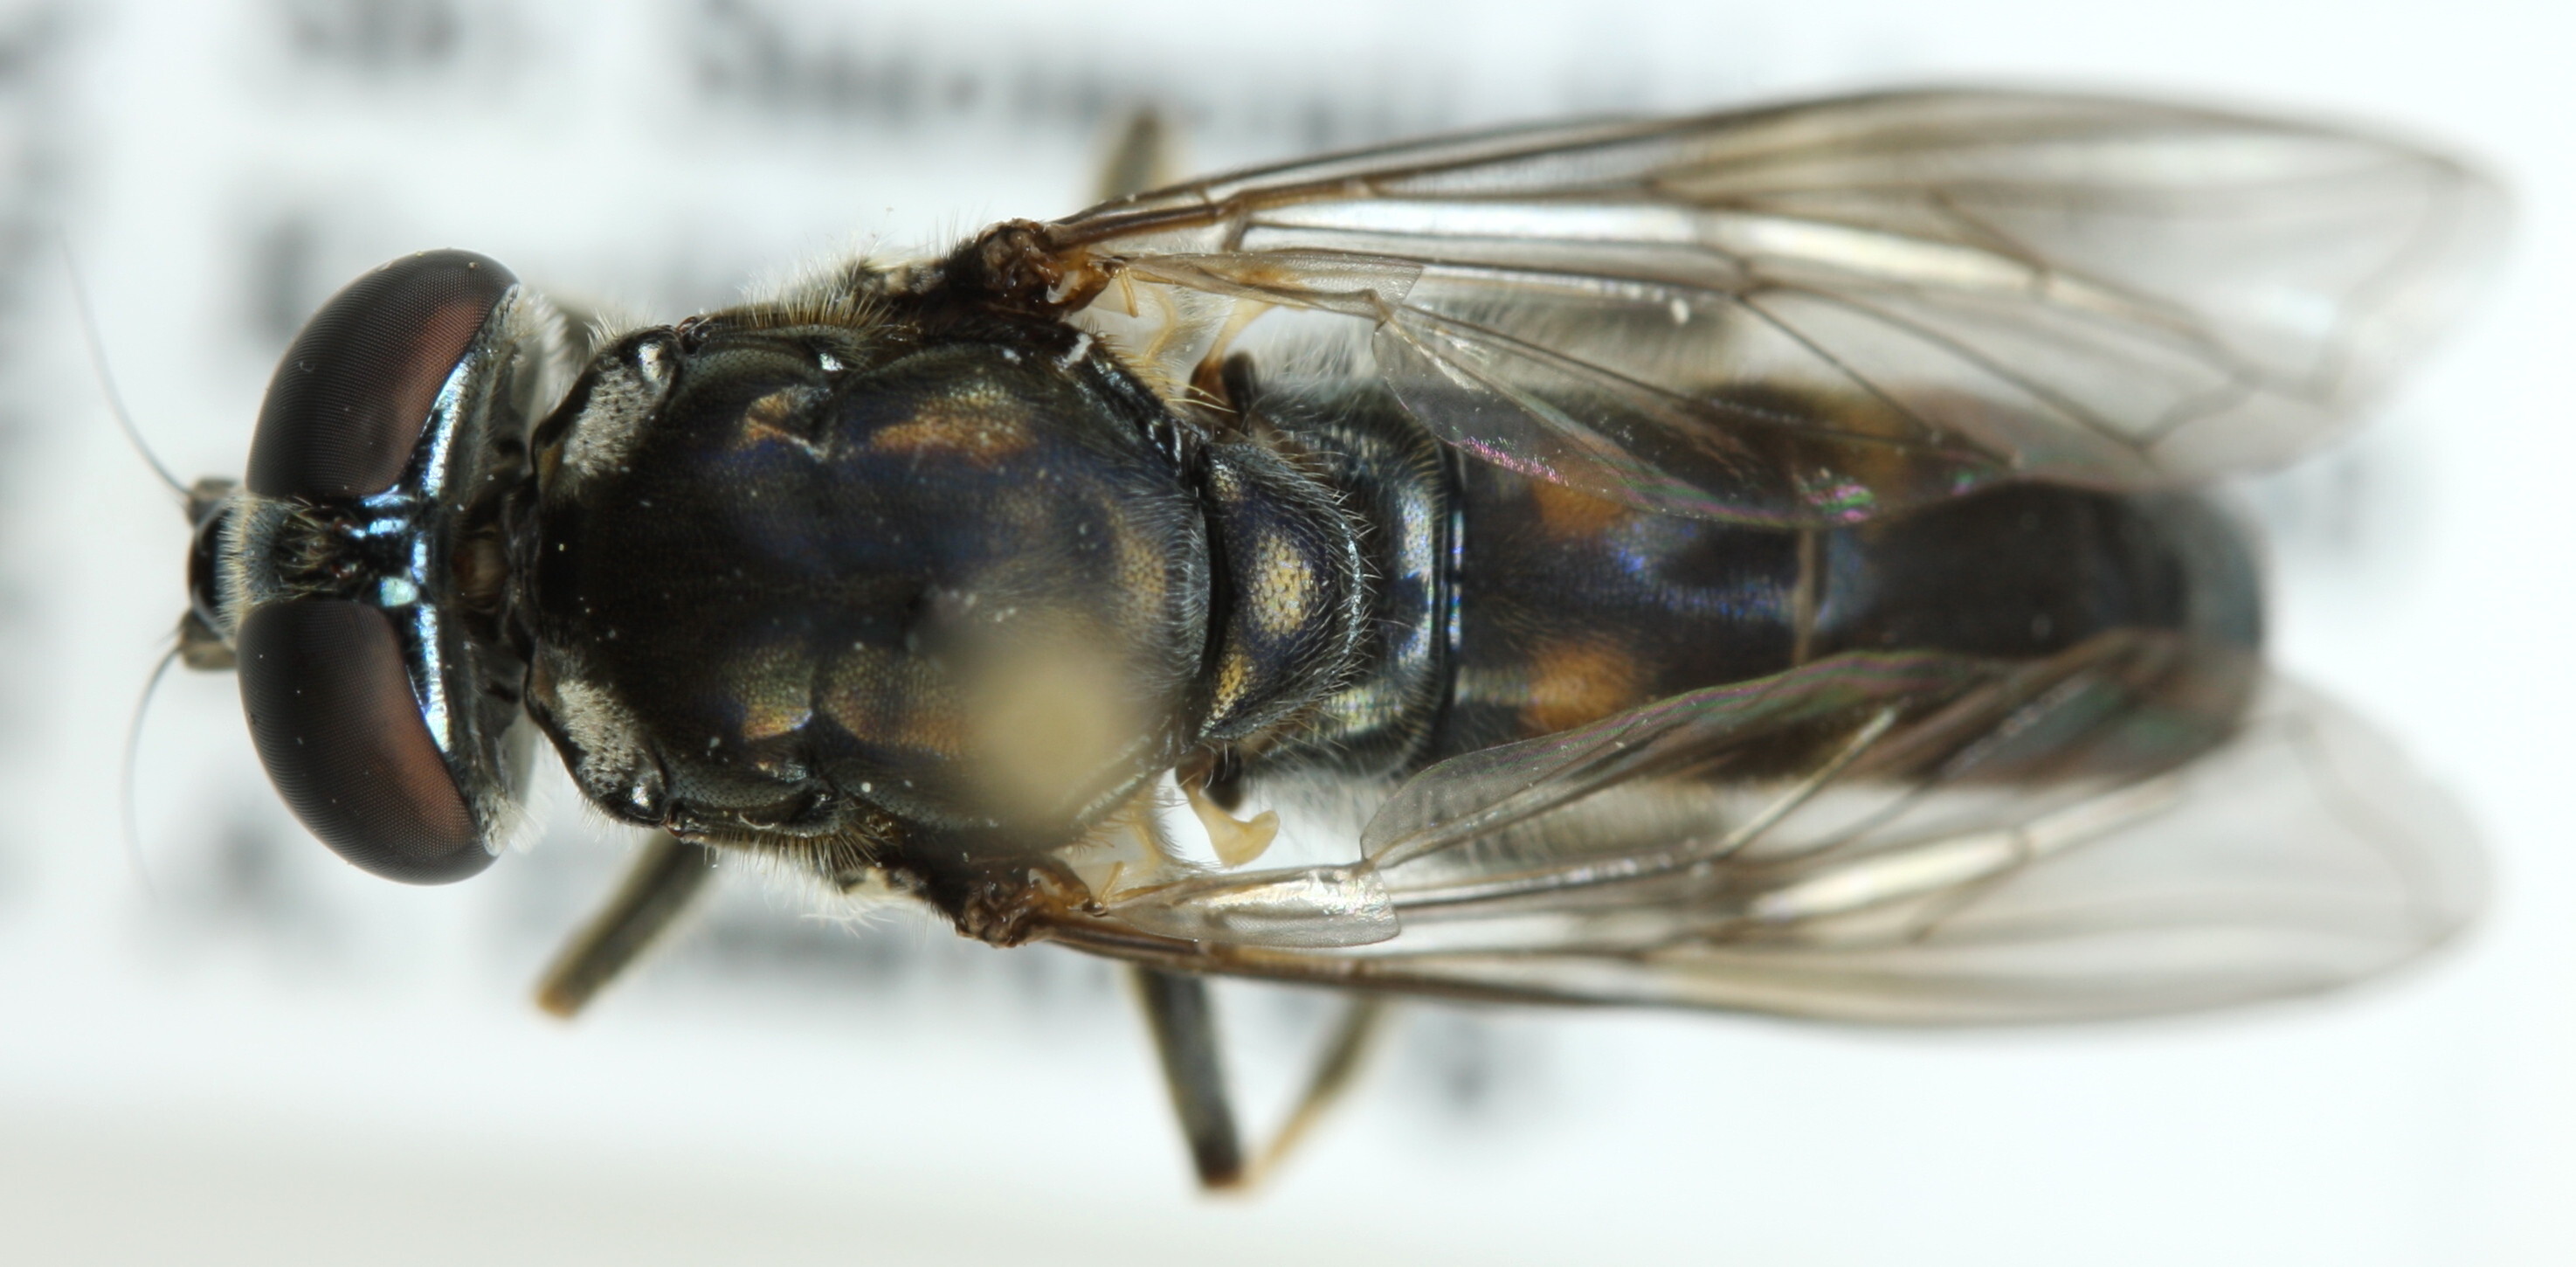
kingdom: Animalia
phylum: Arthropoda
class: Insecta
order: Diptera
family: Syrphidae
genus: Xylota
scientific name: Xylota florum
